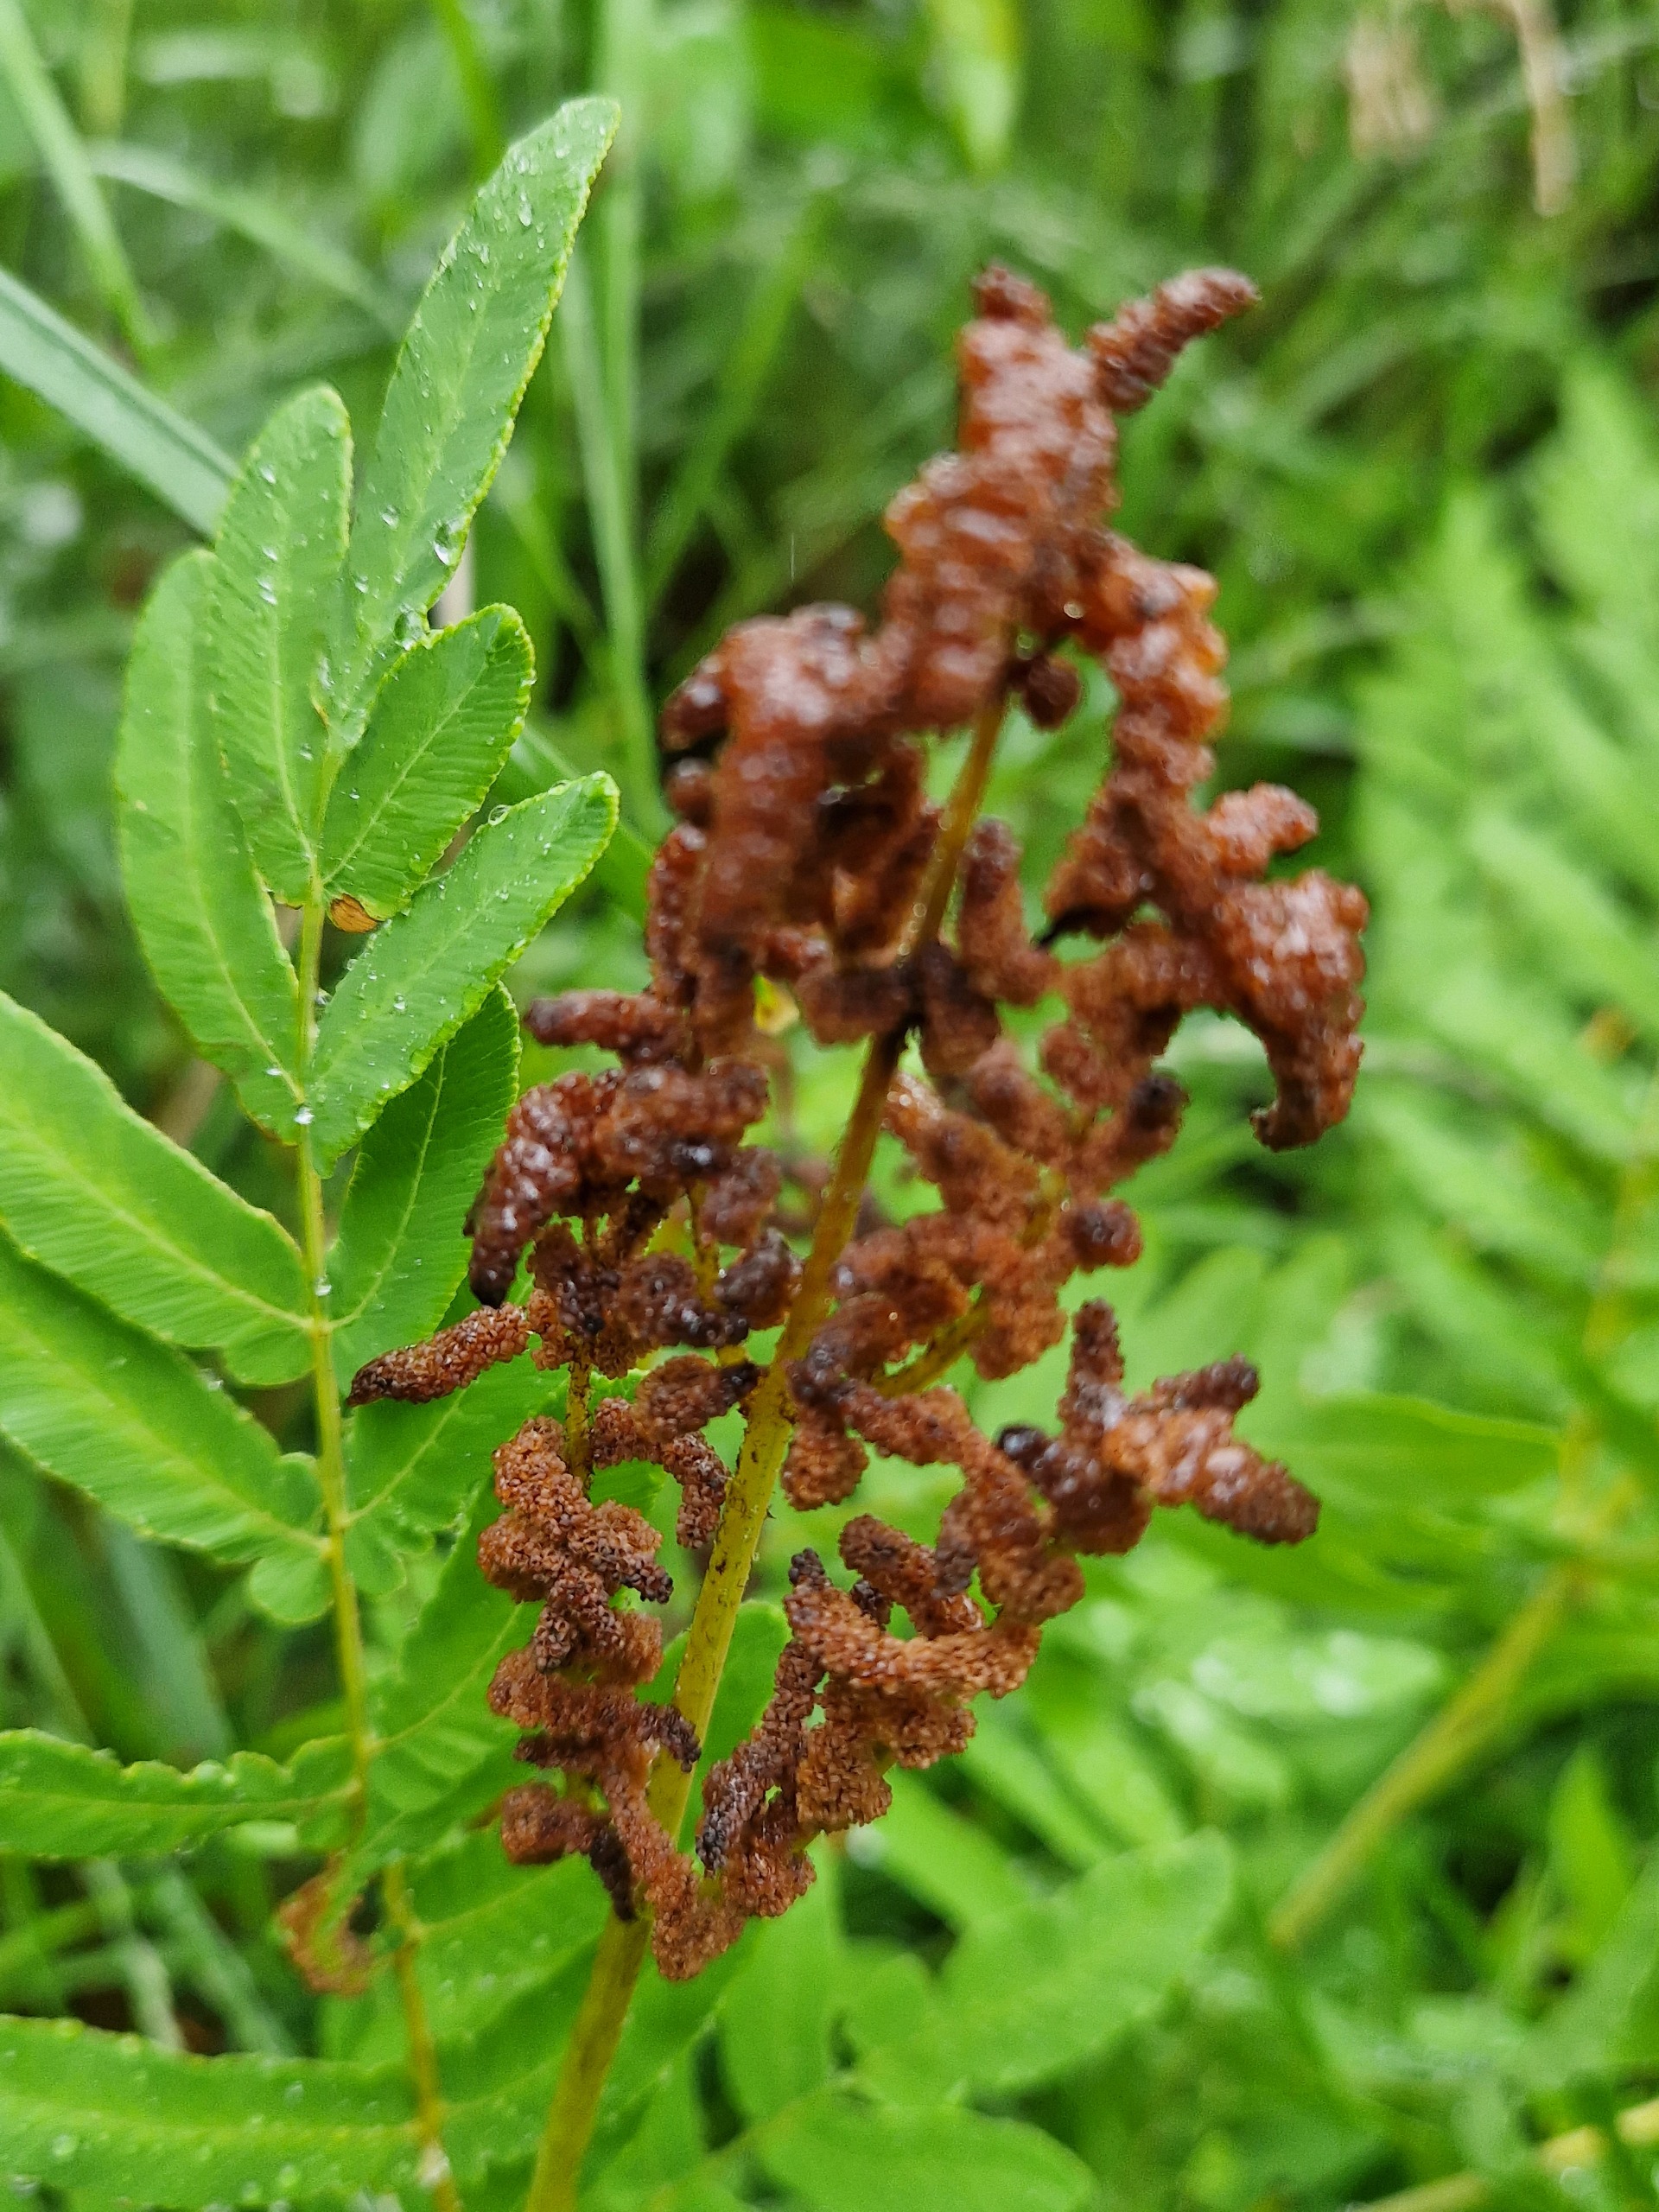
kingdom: Plantae
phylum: Tracheophyta
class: Polypodiopsida
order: Osmundales
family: Osmundaceae
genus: Osmunda
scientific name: Osmunda regalis
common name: Kongebregne
